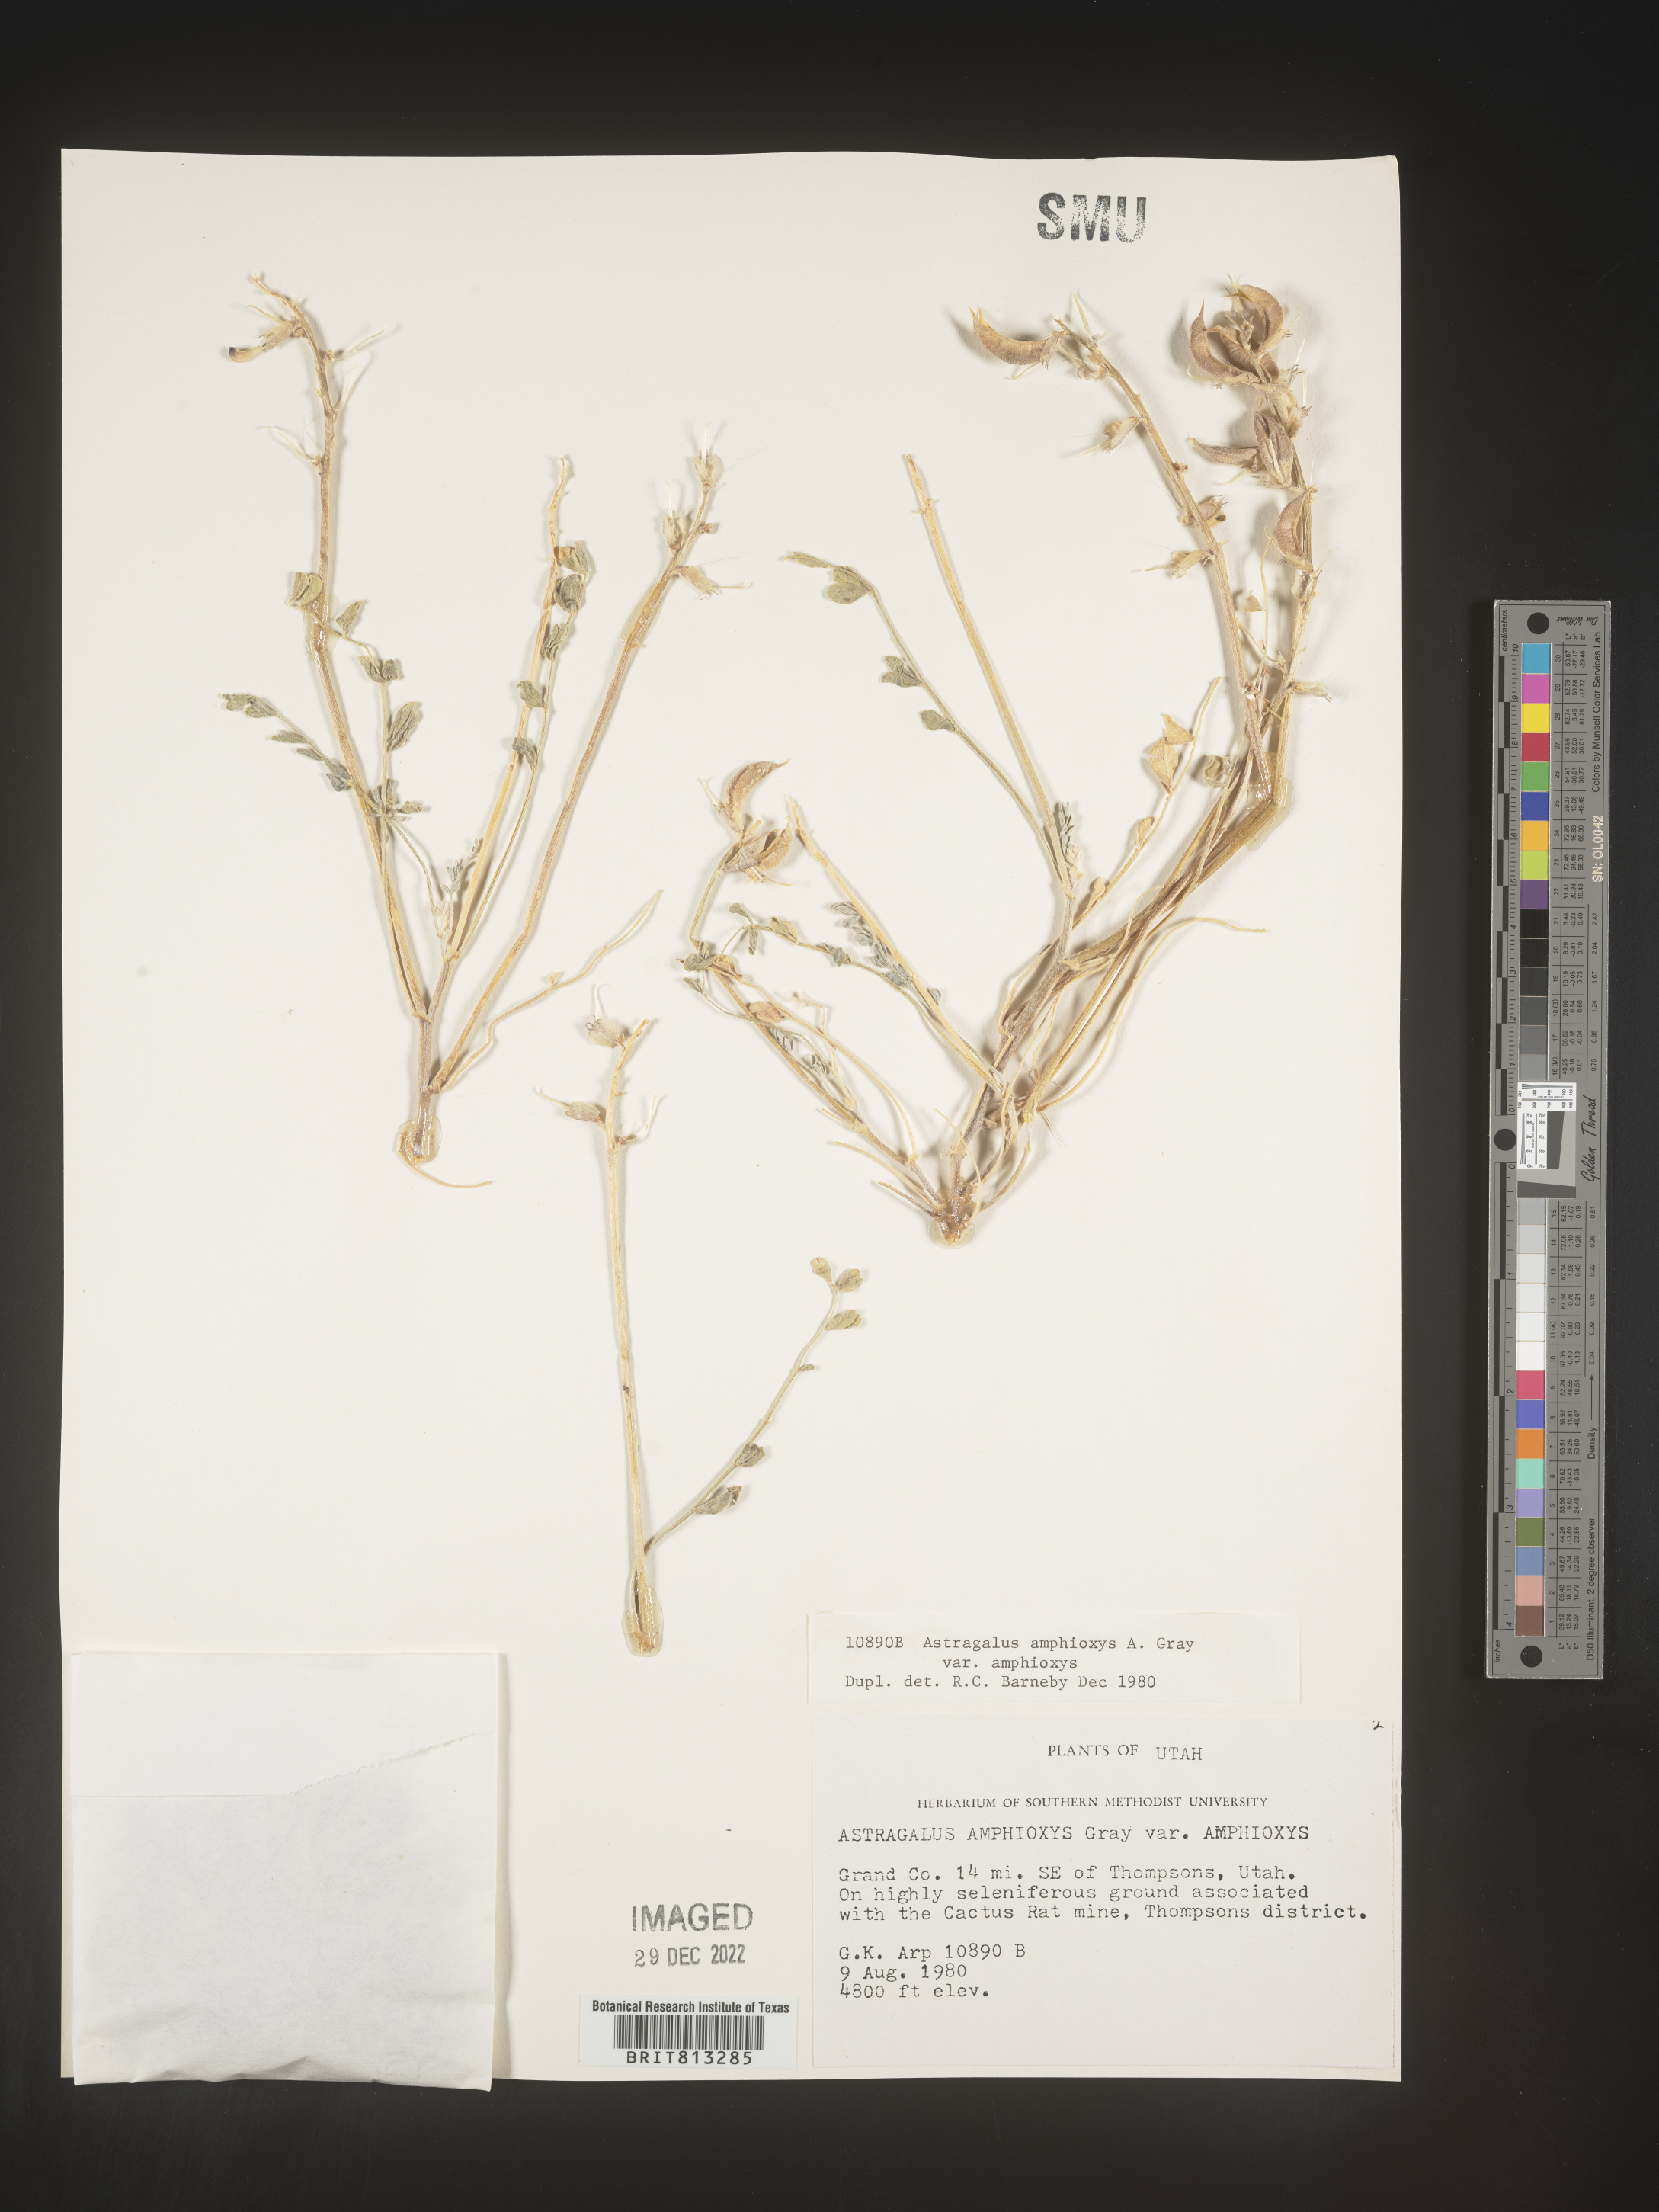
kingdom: Plantae
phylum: Tracheophyta
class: Magnoliopsida
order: Fabales
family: Fabaceae
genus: Astragalus
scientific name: Astragalus
